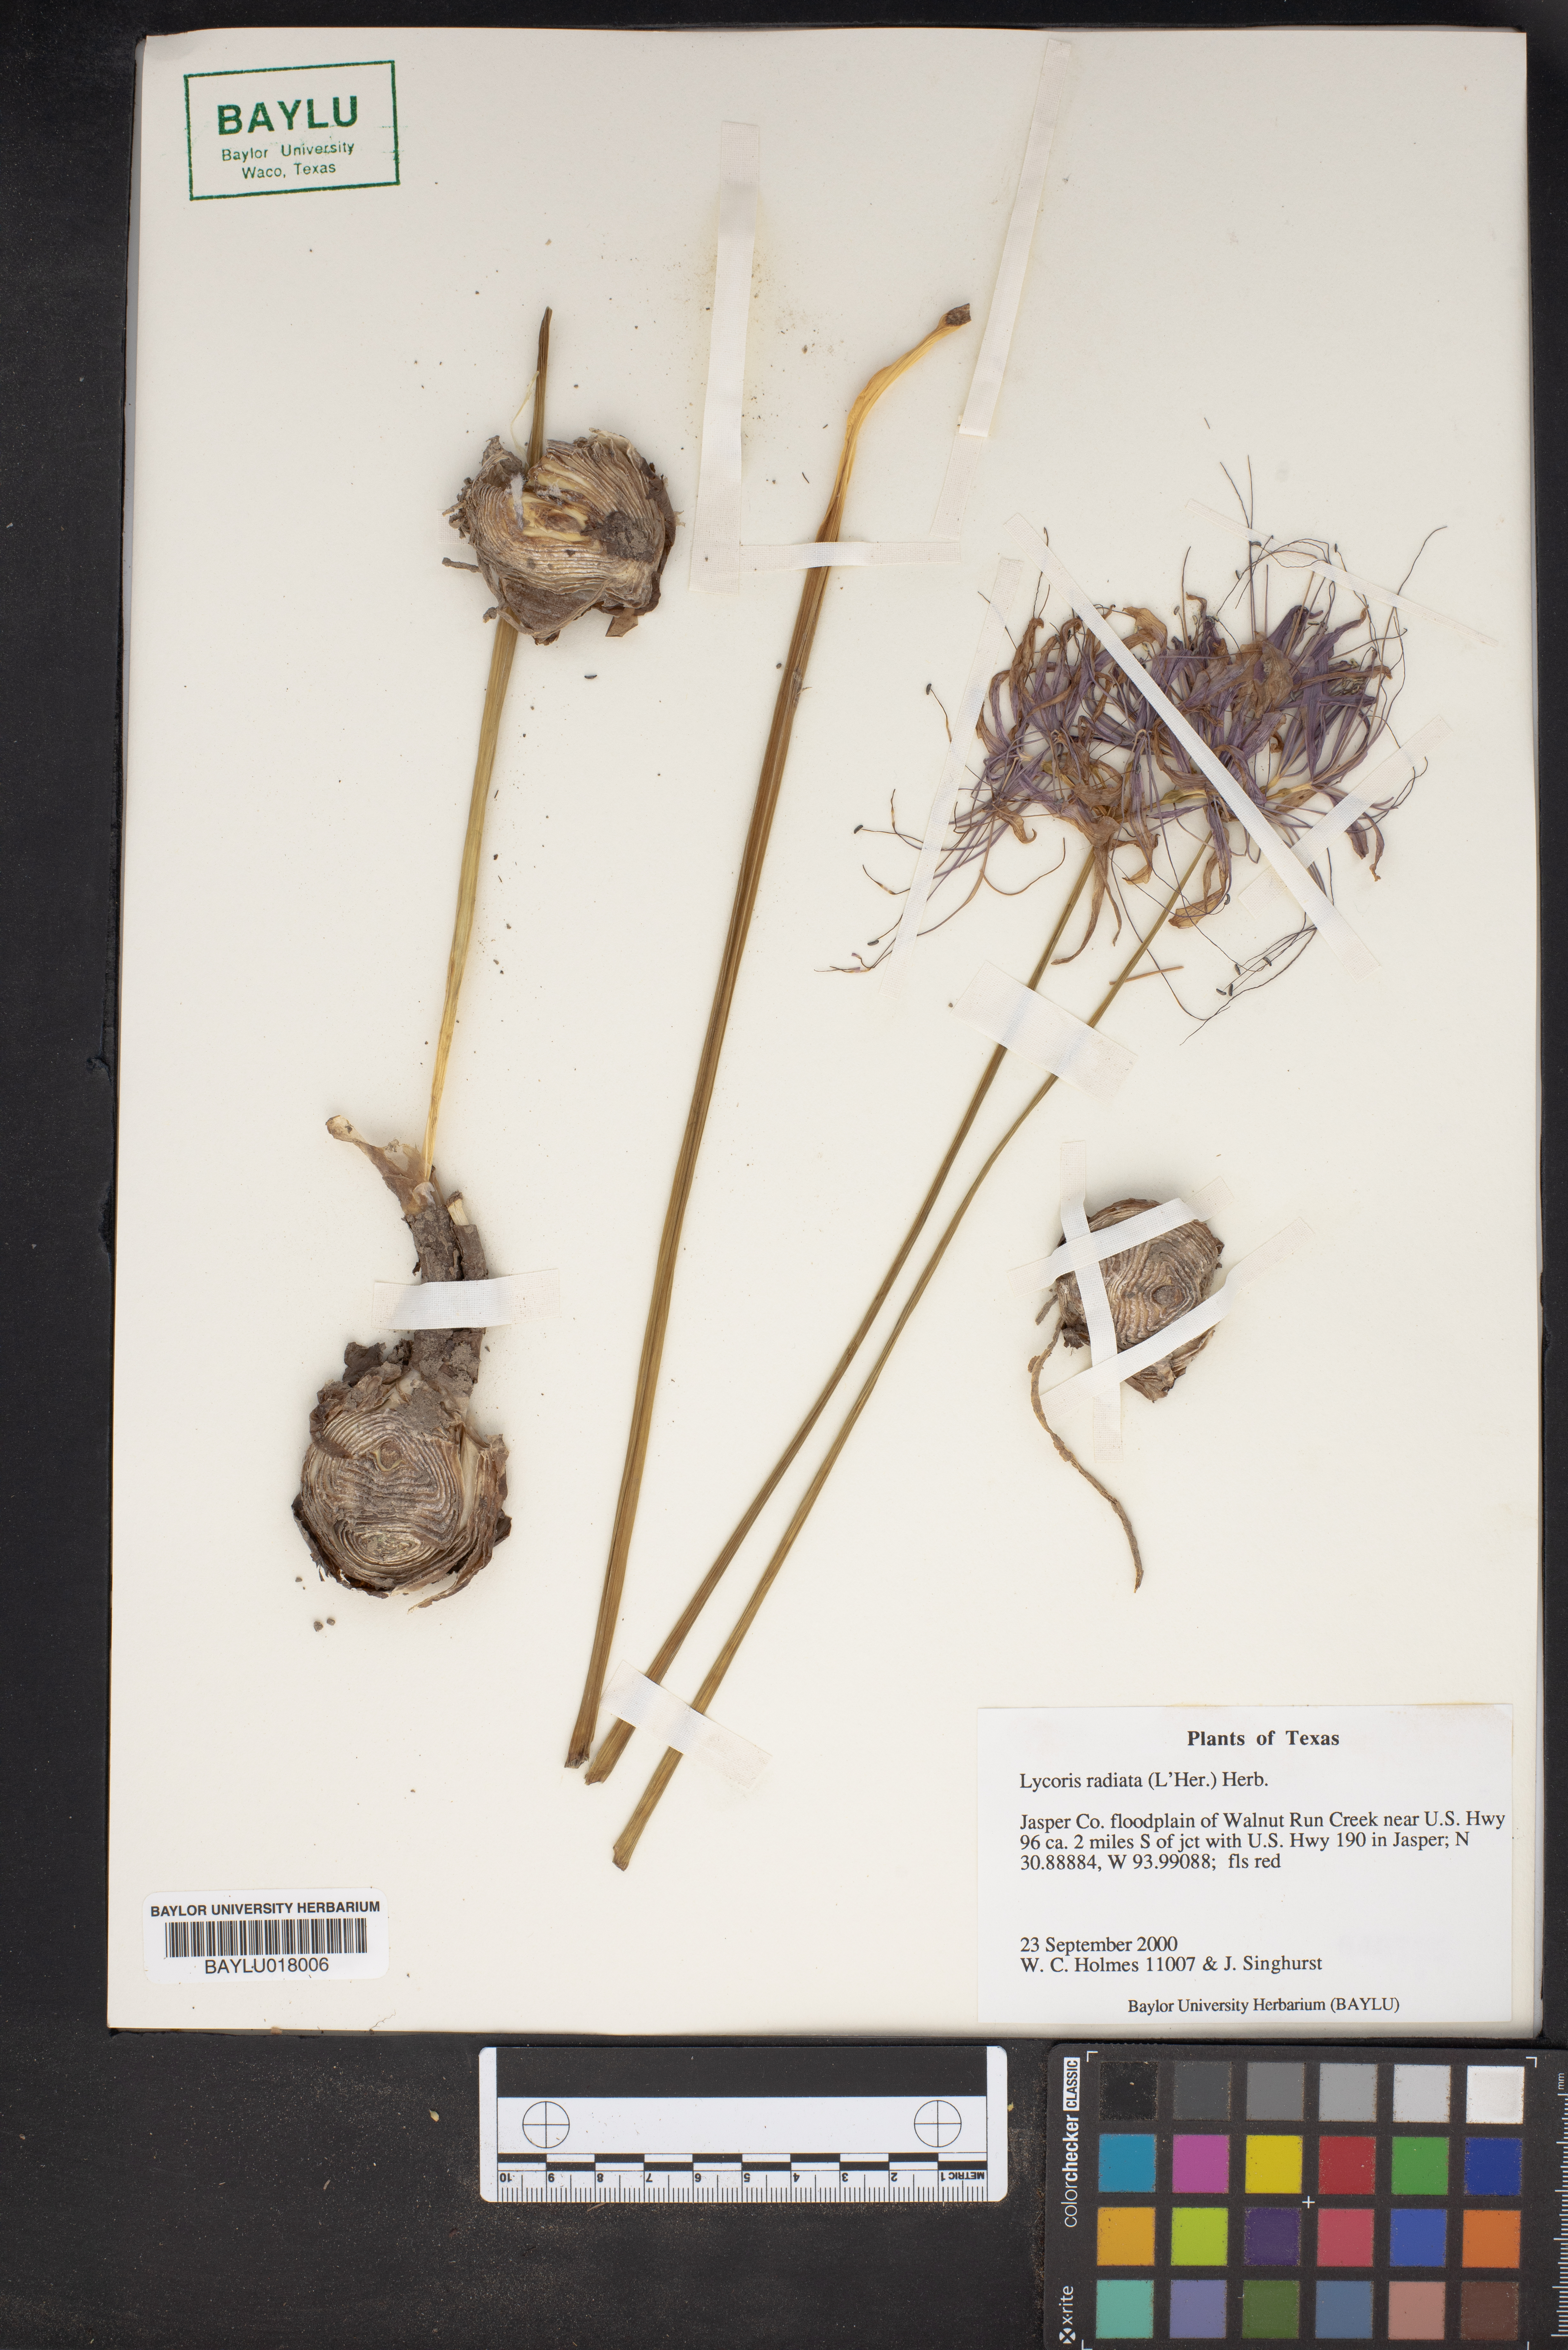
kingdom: Plantae
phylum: Tracheophyta
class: Liliopsida
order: Asparagales
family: Amaryllidaceae
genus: Ungernia
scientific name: Ungernia trisphaera
